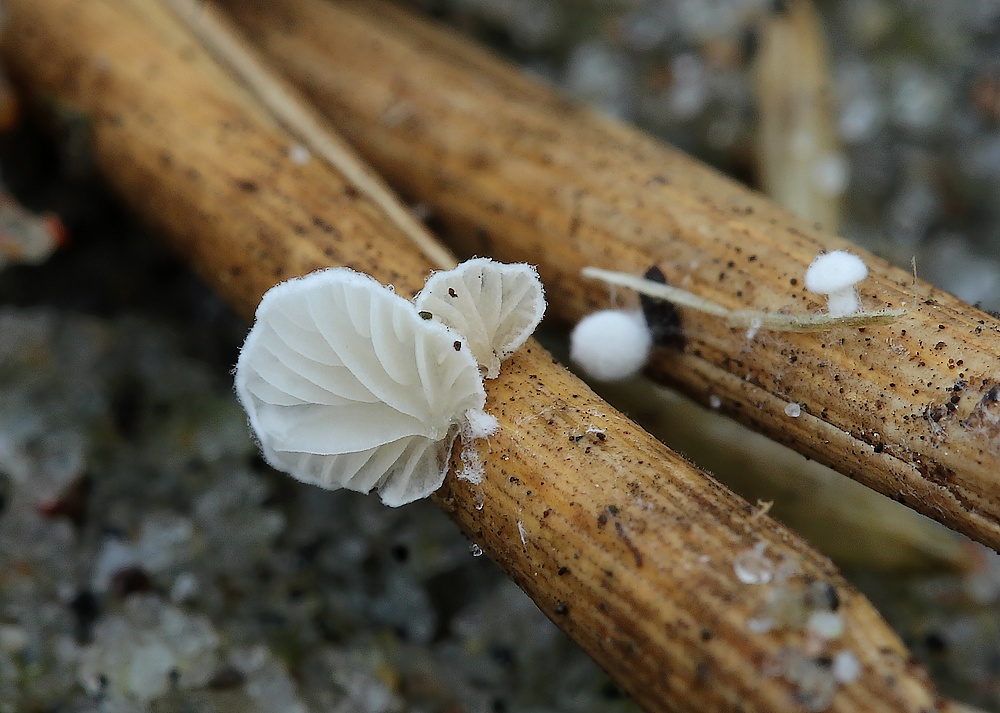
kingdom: Fungi
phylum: Basidiomycota
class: Agaricomycetes
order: Agaricales
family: Entolomataceae
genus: Clitopilus
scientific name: Clitopilus hobsonii
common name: Miller's oysterling
